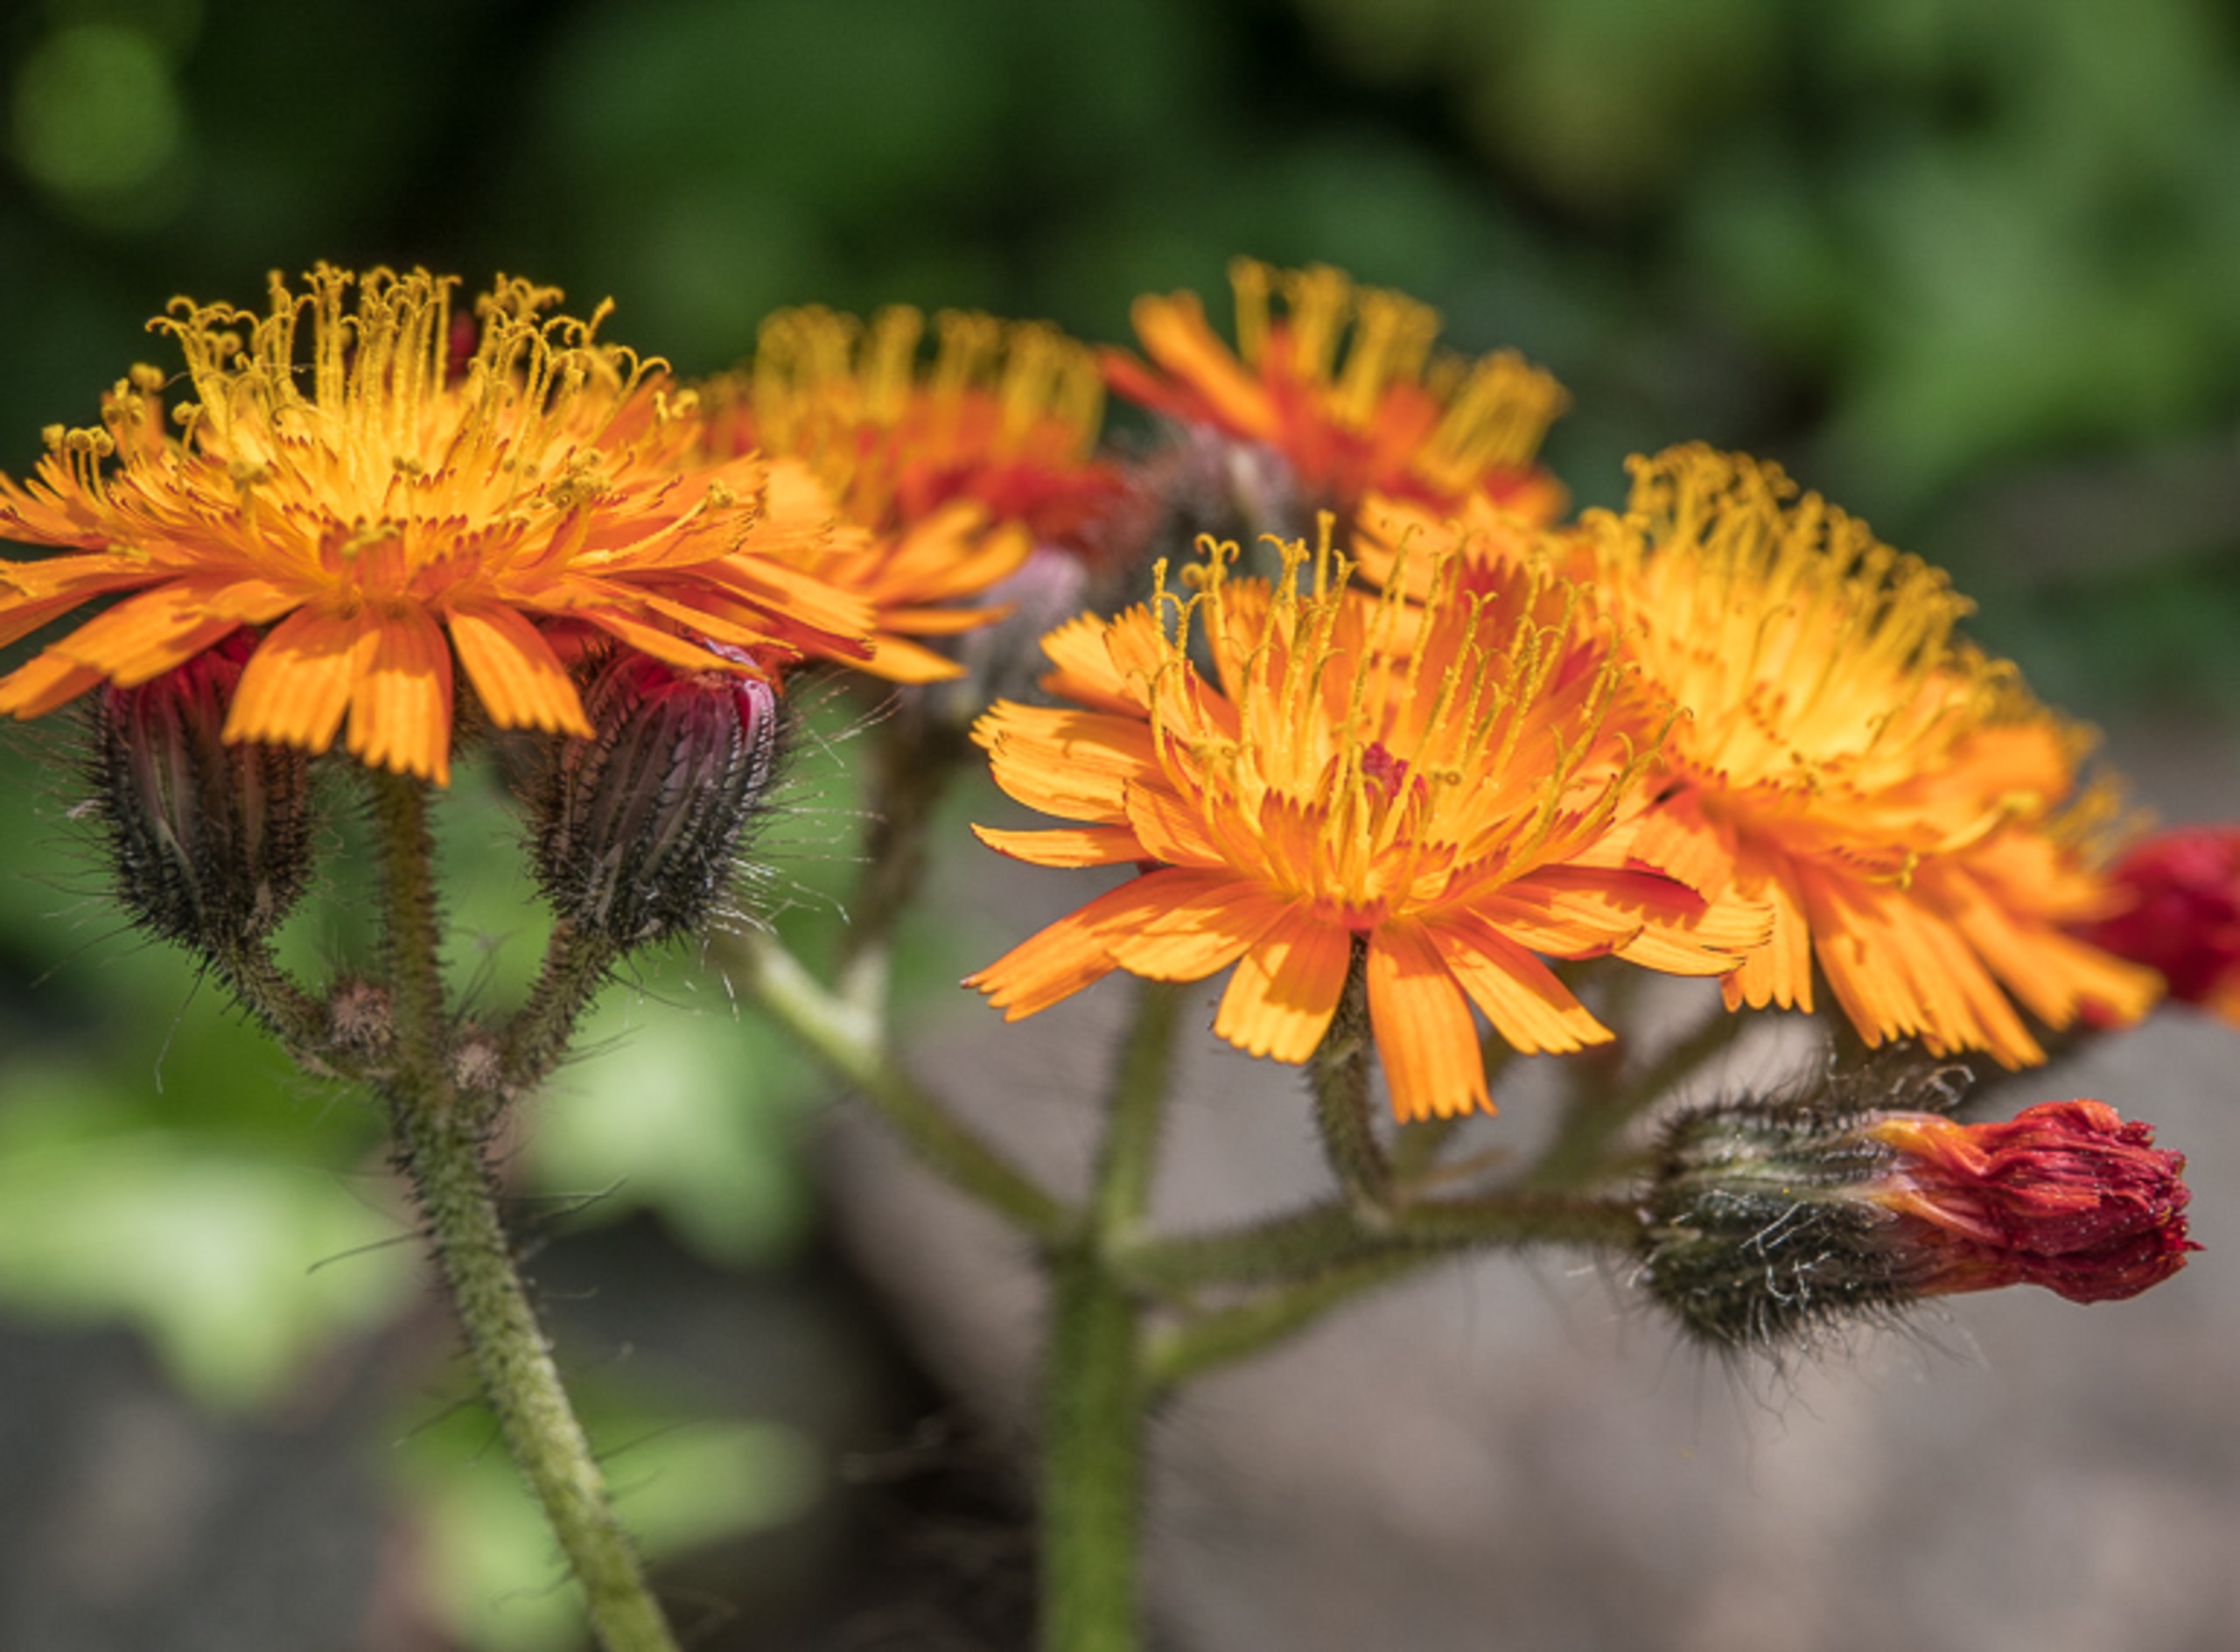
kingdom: Plantae
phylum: Tracheophyta
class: Magnoliopsida
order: Asterales
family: Asteraceae
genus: Pilosella
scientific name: Pilosella aurantiaca
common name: Pomerans-høgeurt
